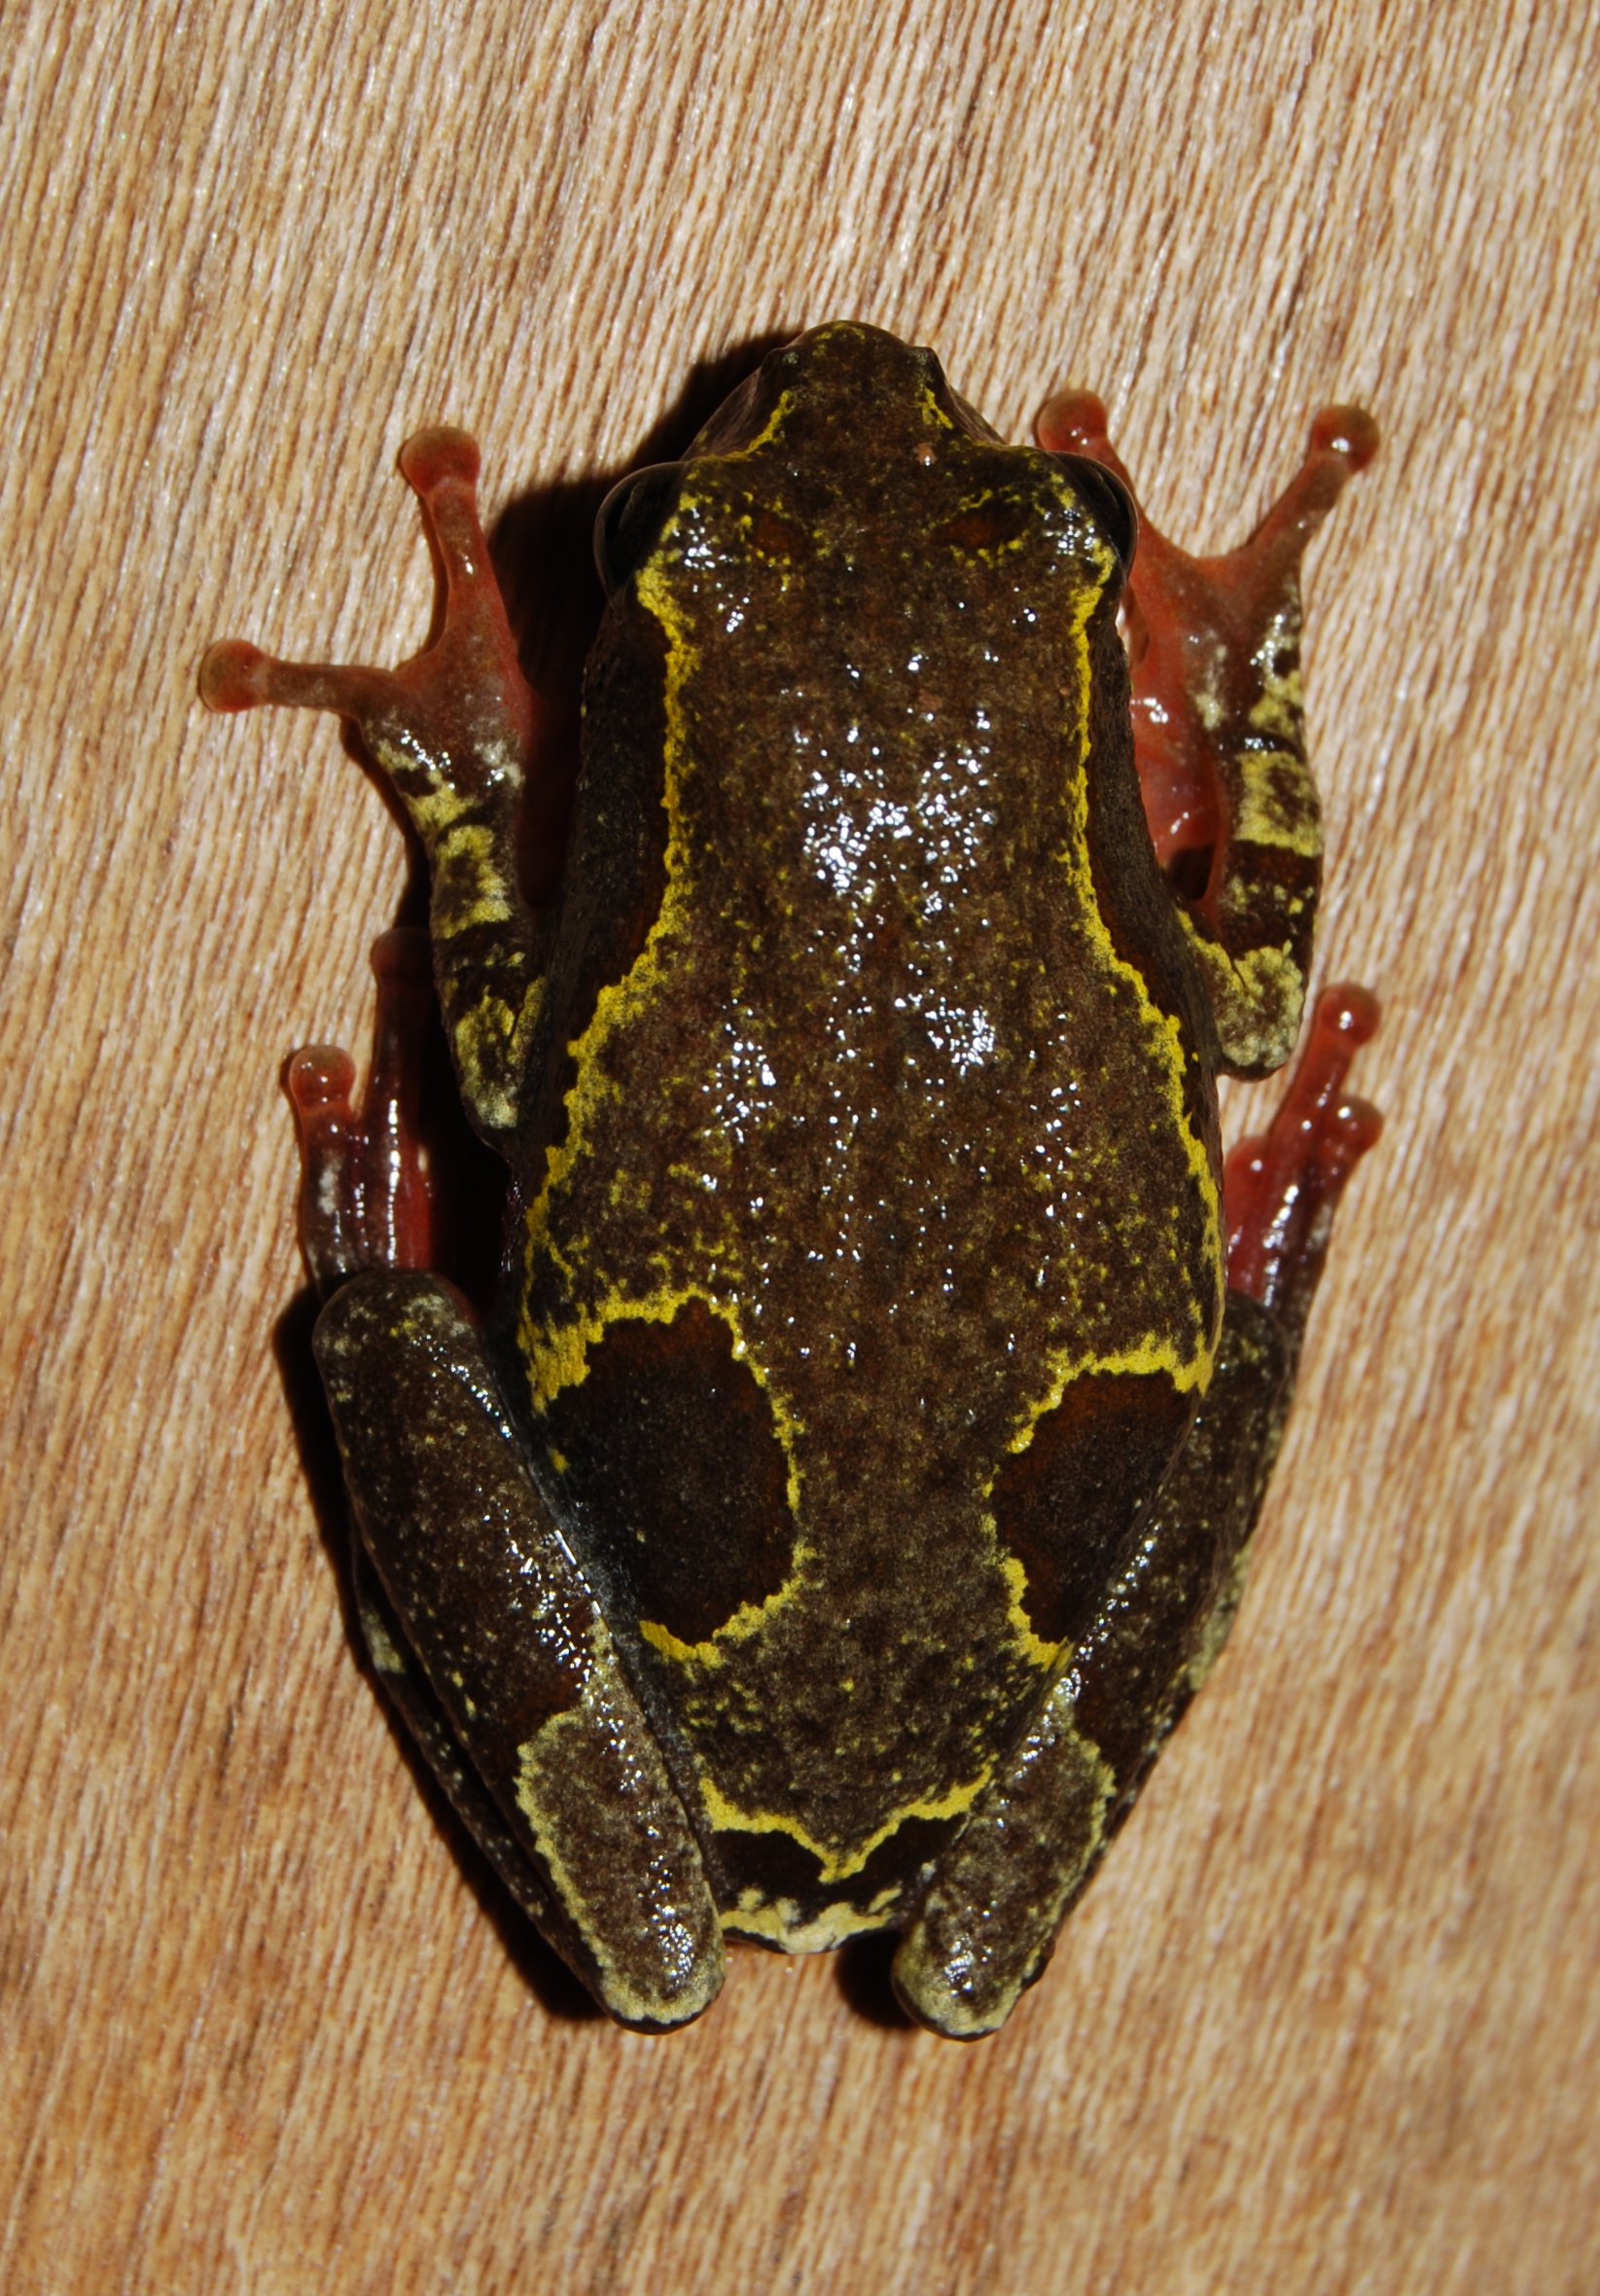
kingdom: Animalia
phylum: Chordata
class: Amphibia
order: Anura
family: Hyperoliidae
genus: Hyperolius
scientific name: Hyperolius nasicus
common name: Pointed long reed frog
